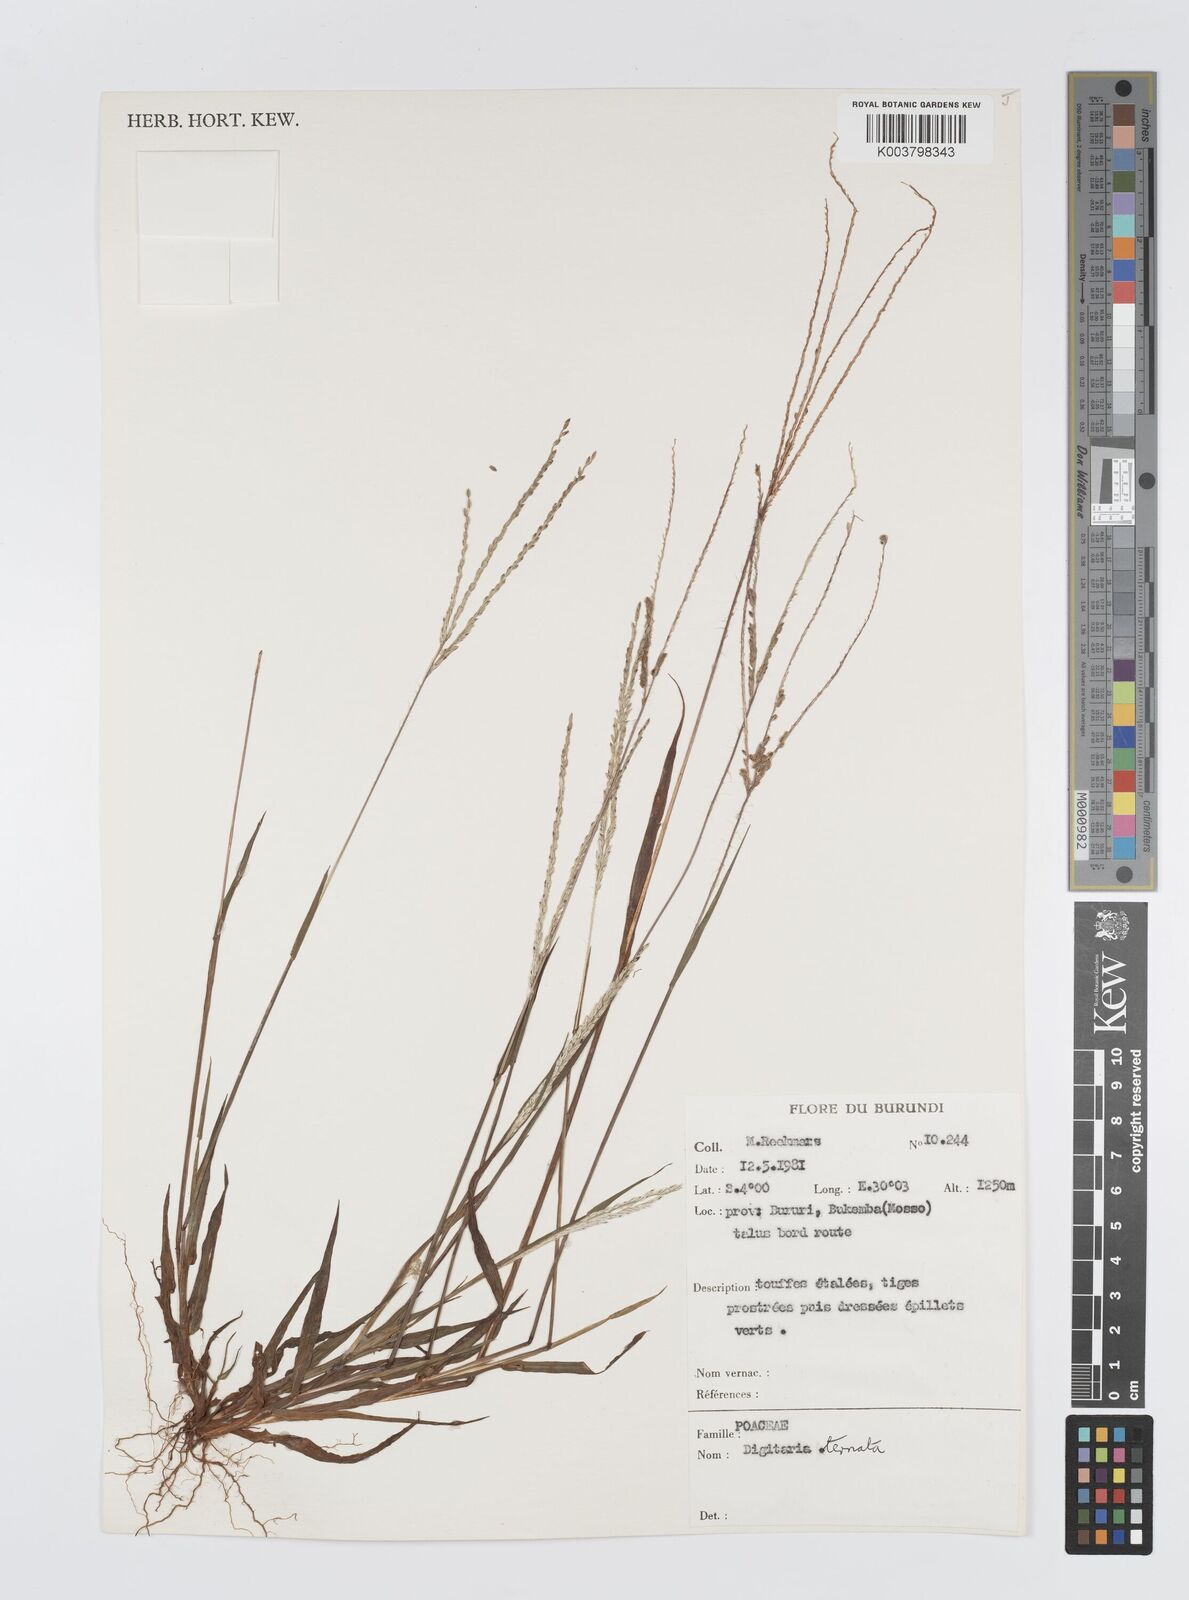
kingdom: Plantae
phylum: Tracheophyta
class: Liliopsida
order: Poales
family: Poaceae
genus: Digitaria
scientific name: Digitaria ternata
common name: Blackseed crabgrass
